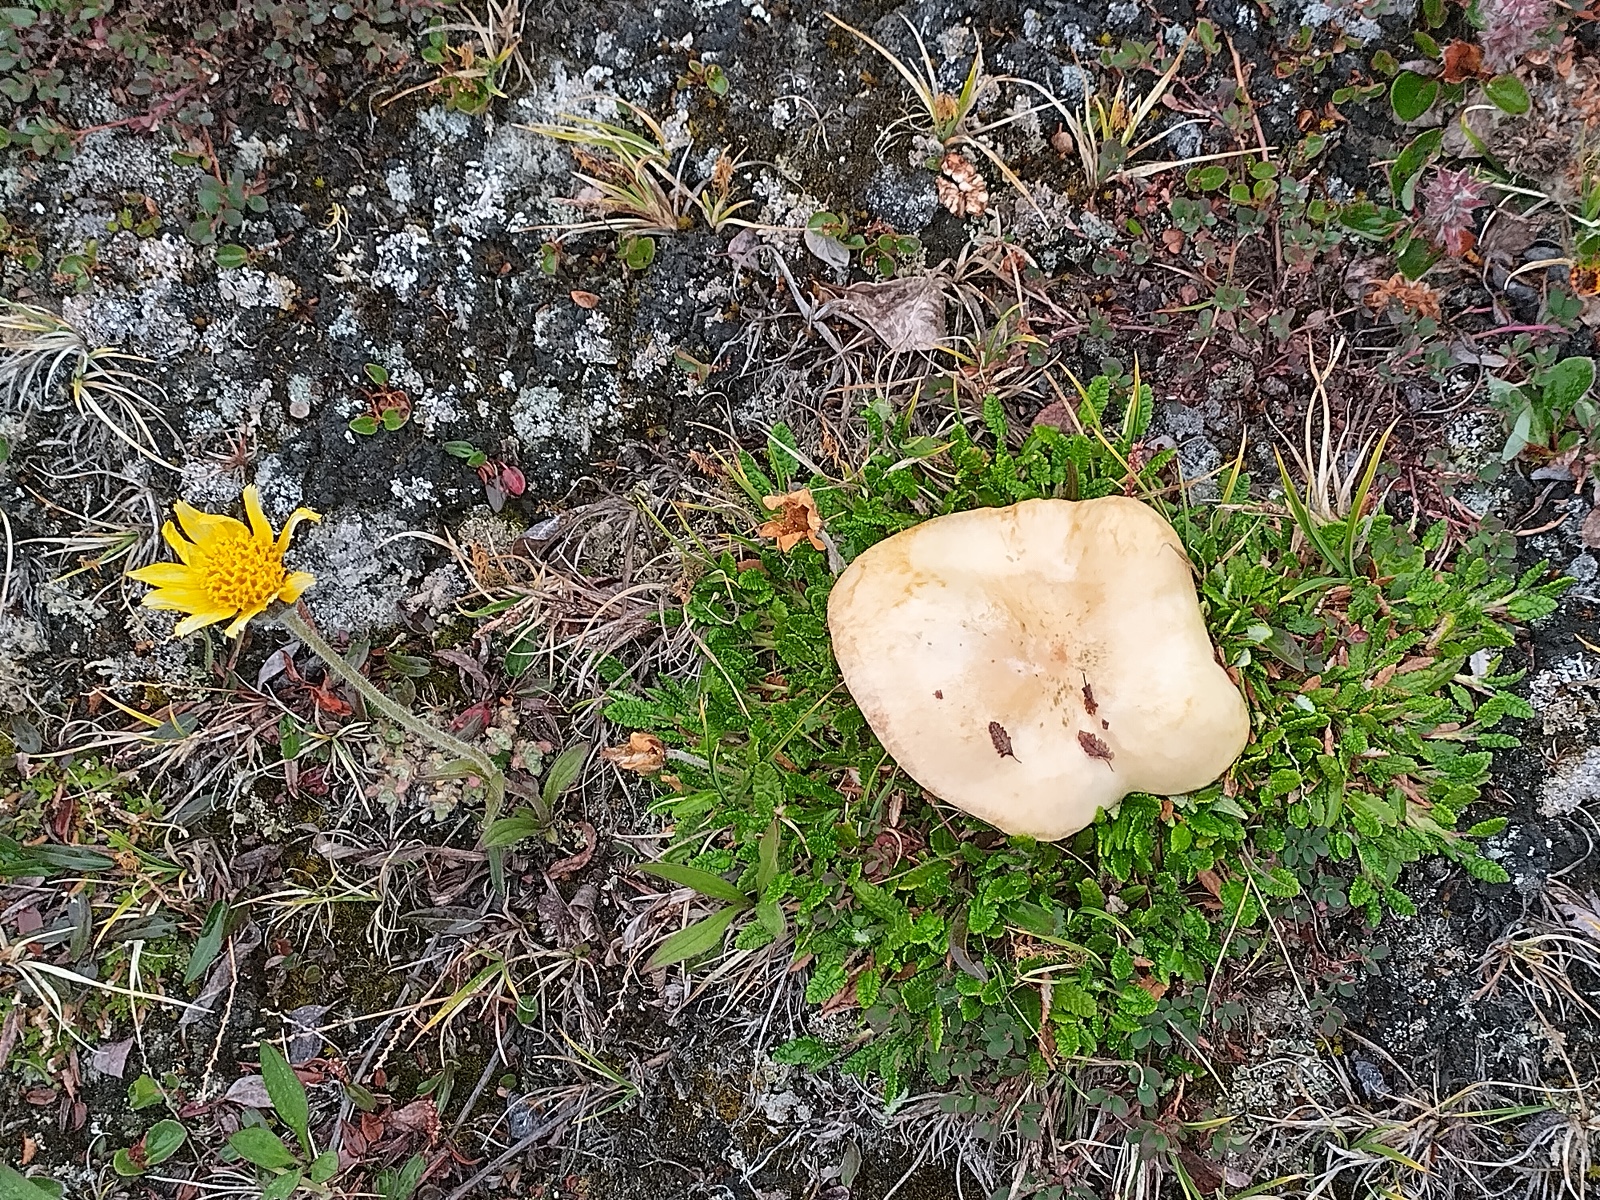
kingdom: Fungi
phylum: Basidiomycota
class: Agaricomycetes
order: Russulales
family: Russulaceae
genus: Lactarius
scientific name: Lactarius dryadophilus
